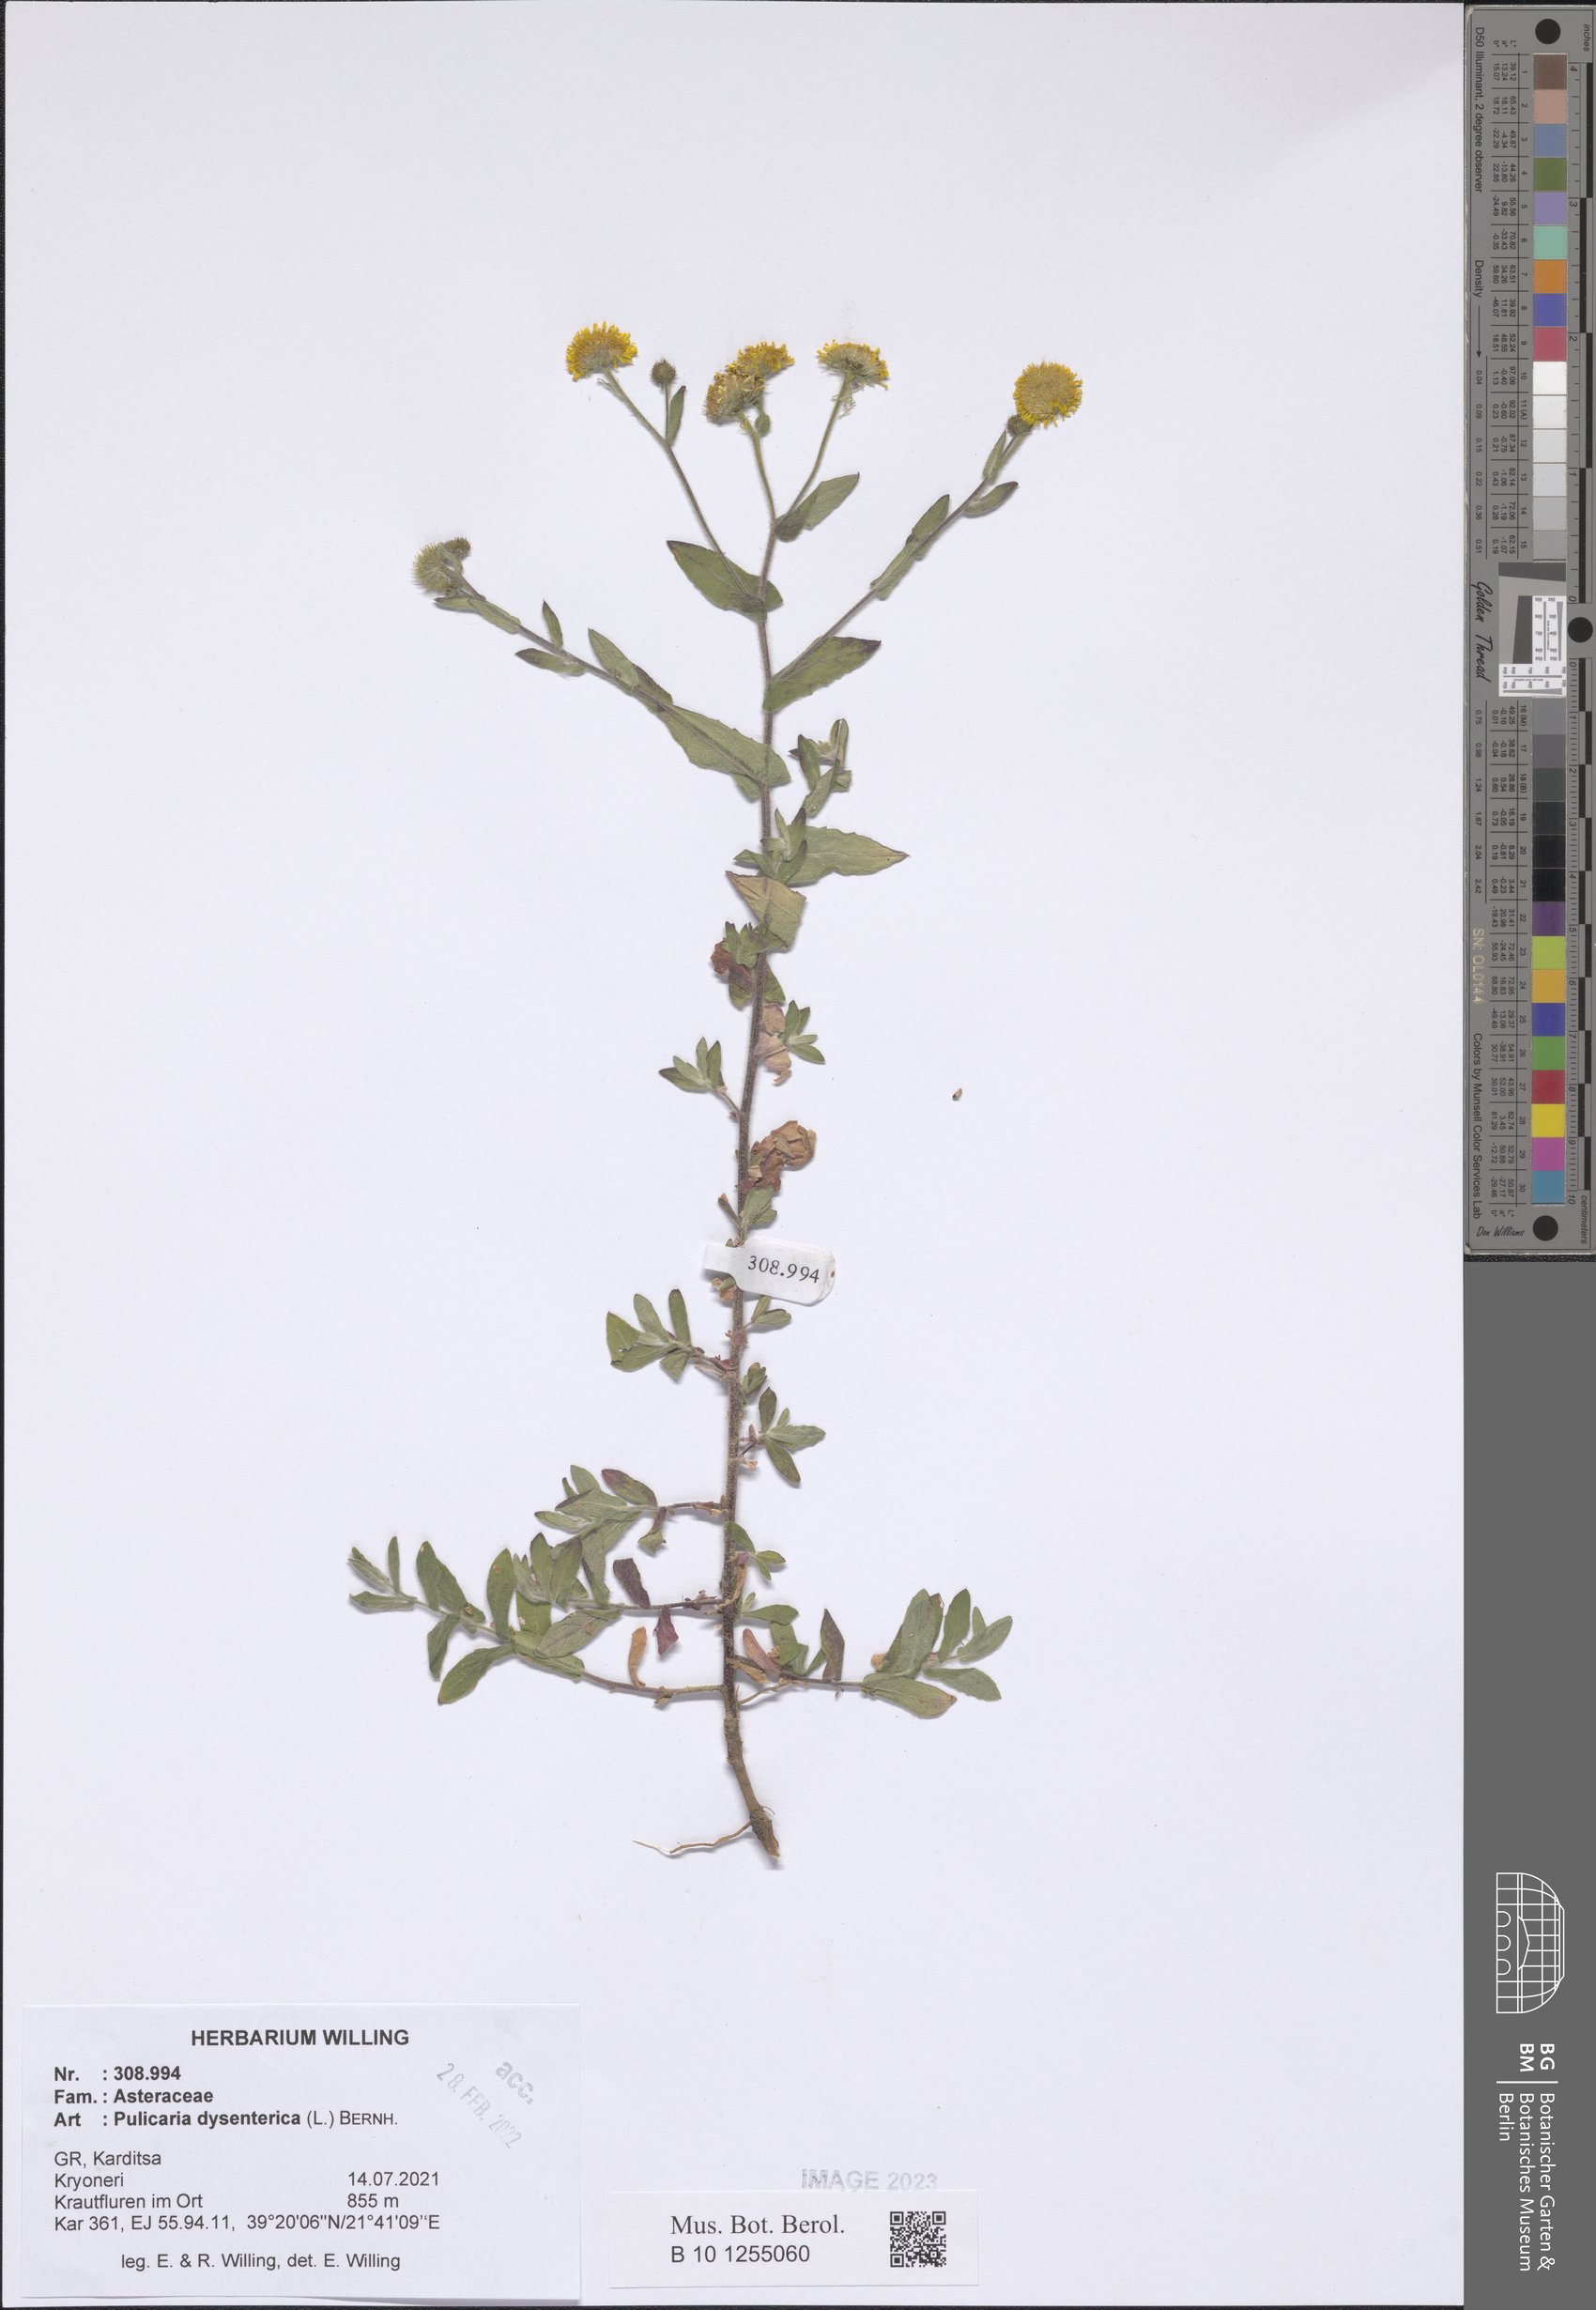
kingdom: Plantae
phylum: Tracheophyta
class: Magnoliopsida
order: Asterales
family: Asteraceae
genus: Pulicaria
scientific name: Pulicaria dysenterica
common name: Common fleabane
